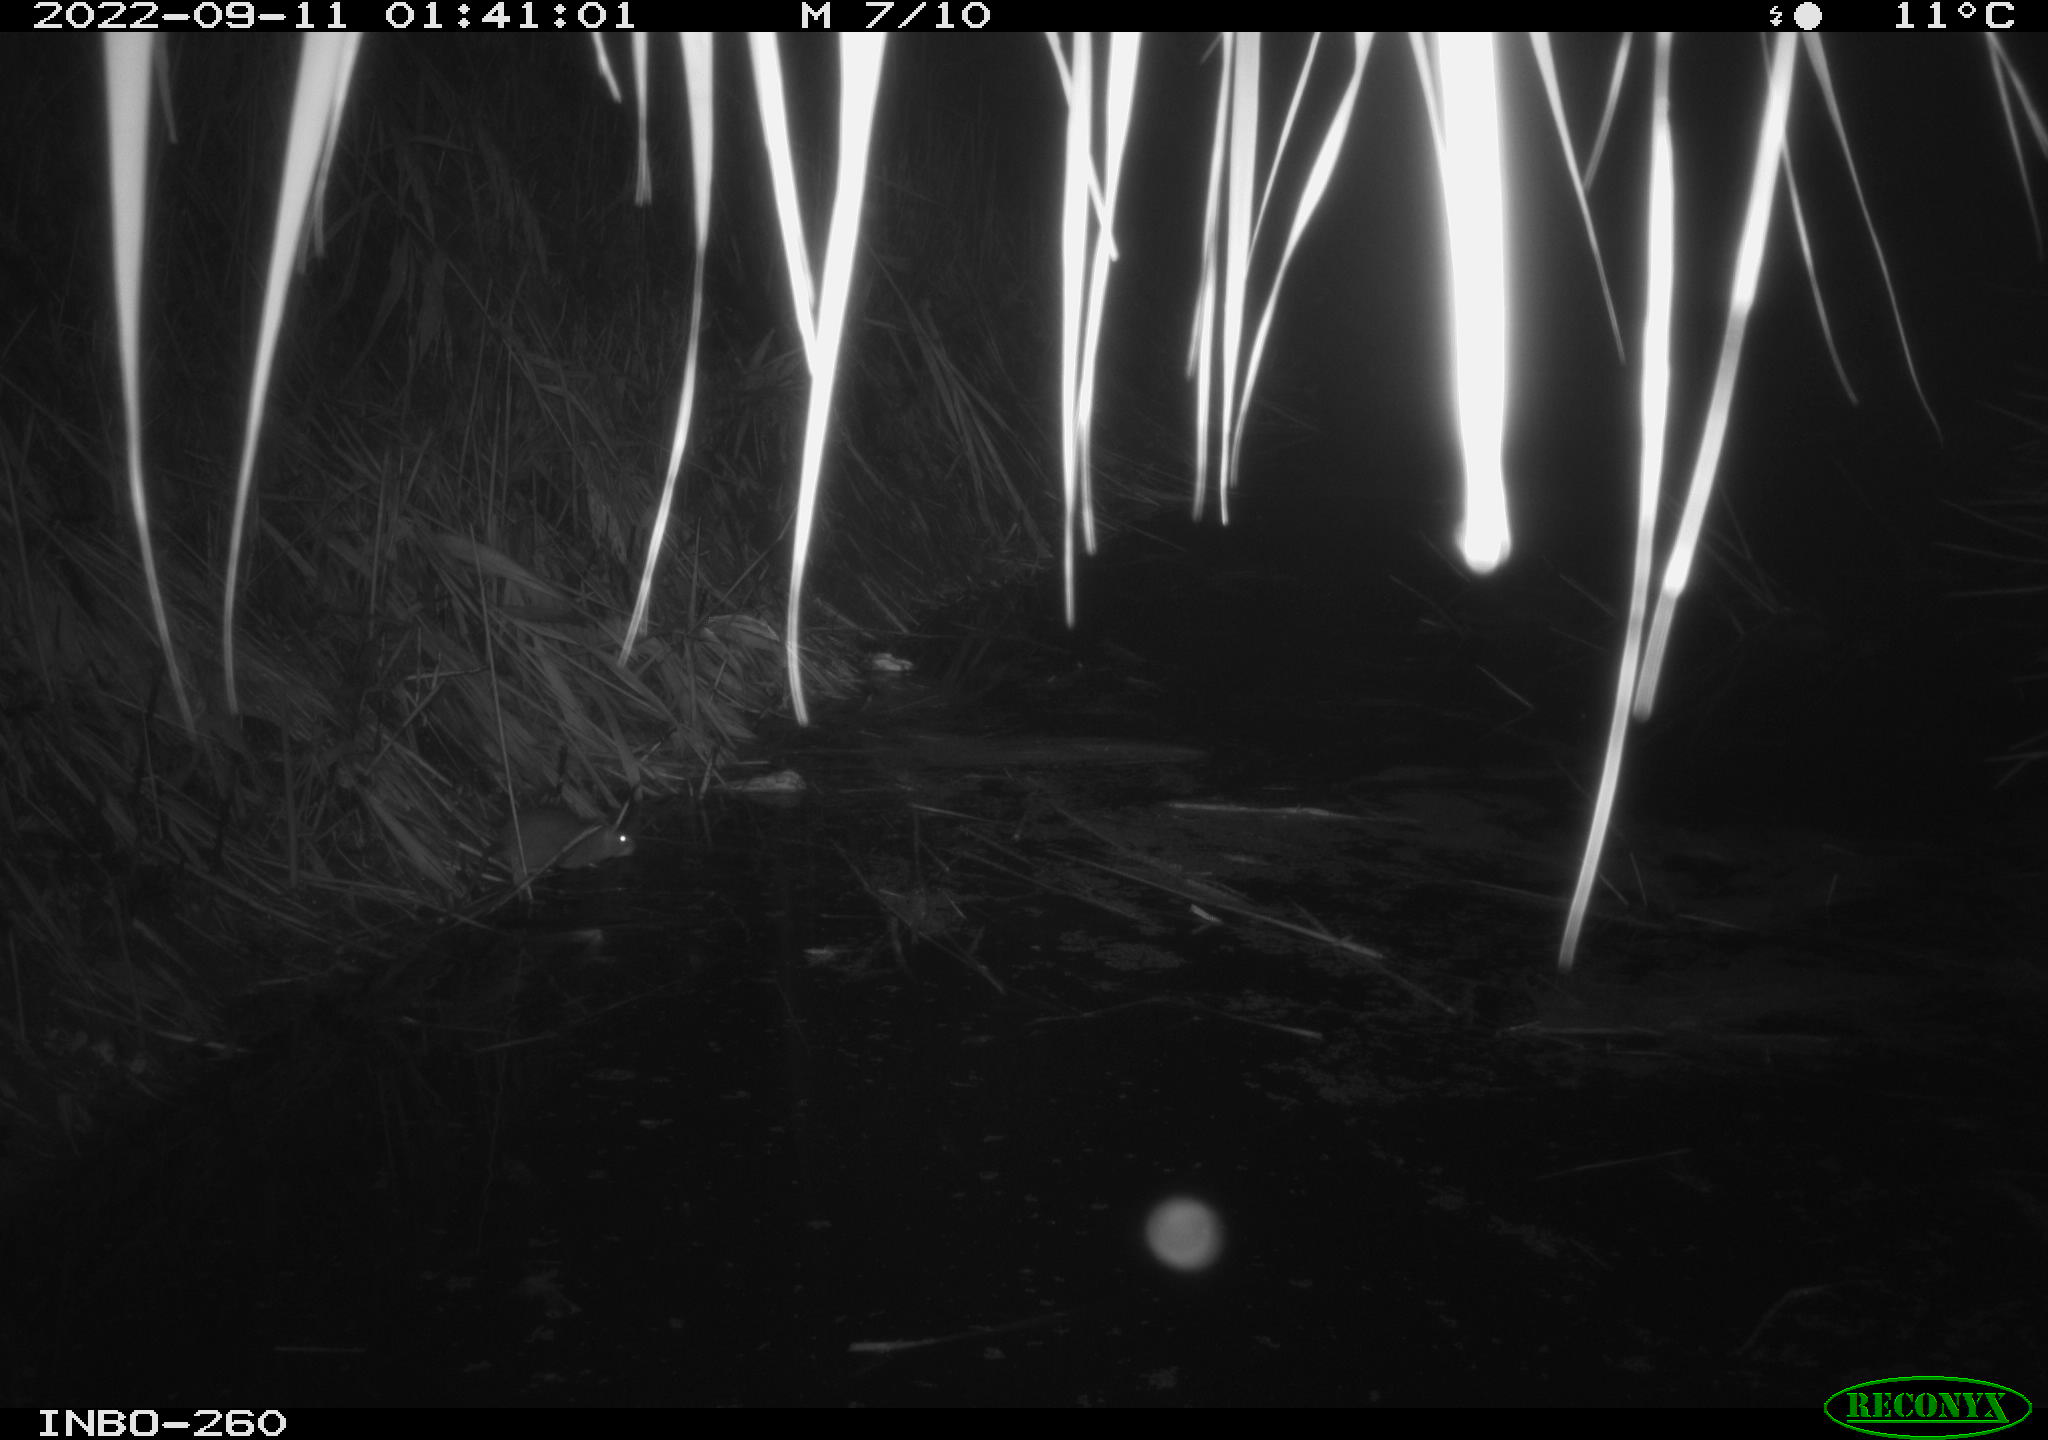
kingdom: Animalia
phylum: Chordata
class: Mammalia
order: Rodentia
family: Muridae
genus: Rattus
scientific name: Rattus norvegicus
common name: Brown rat
